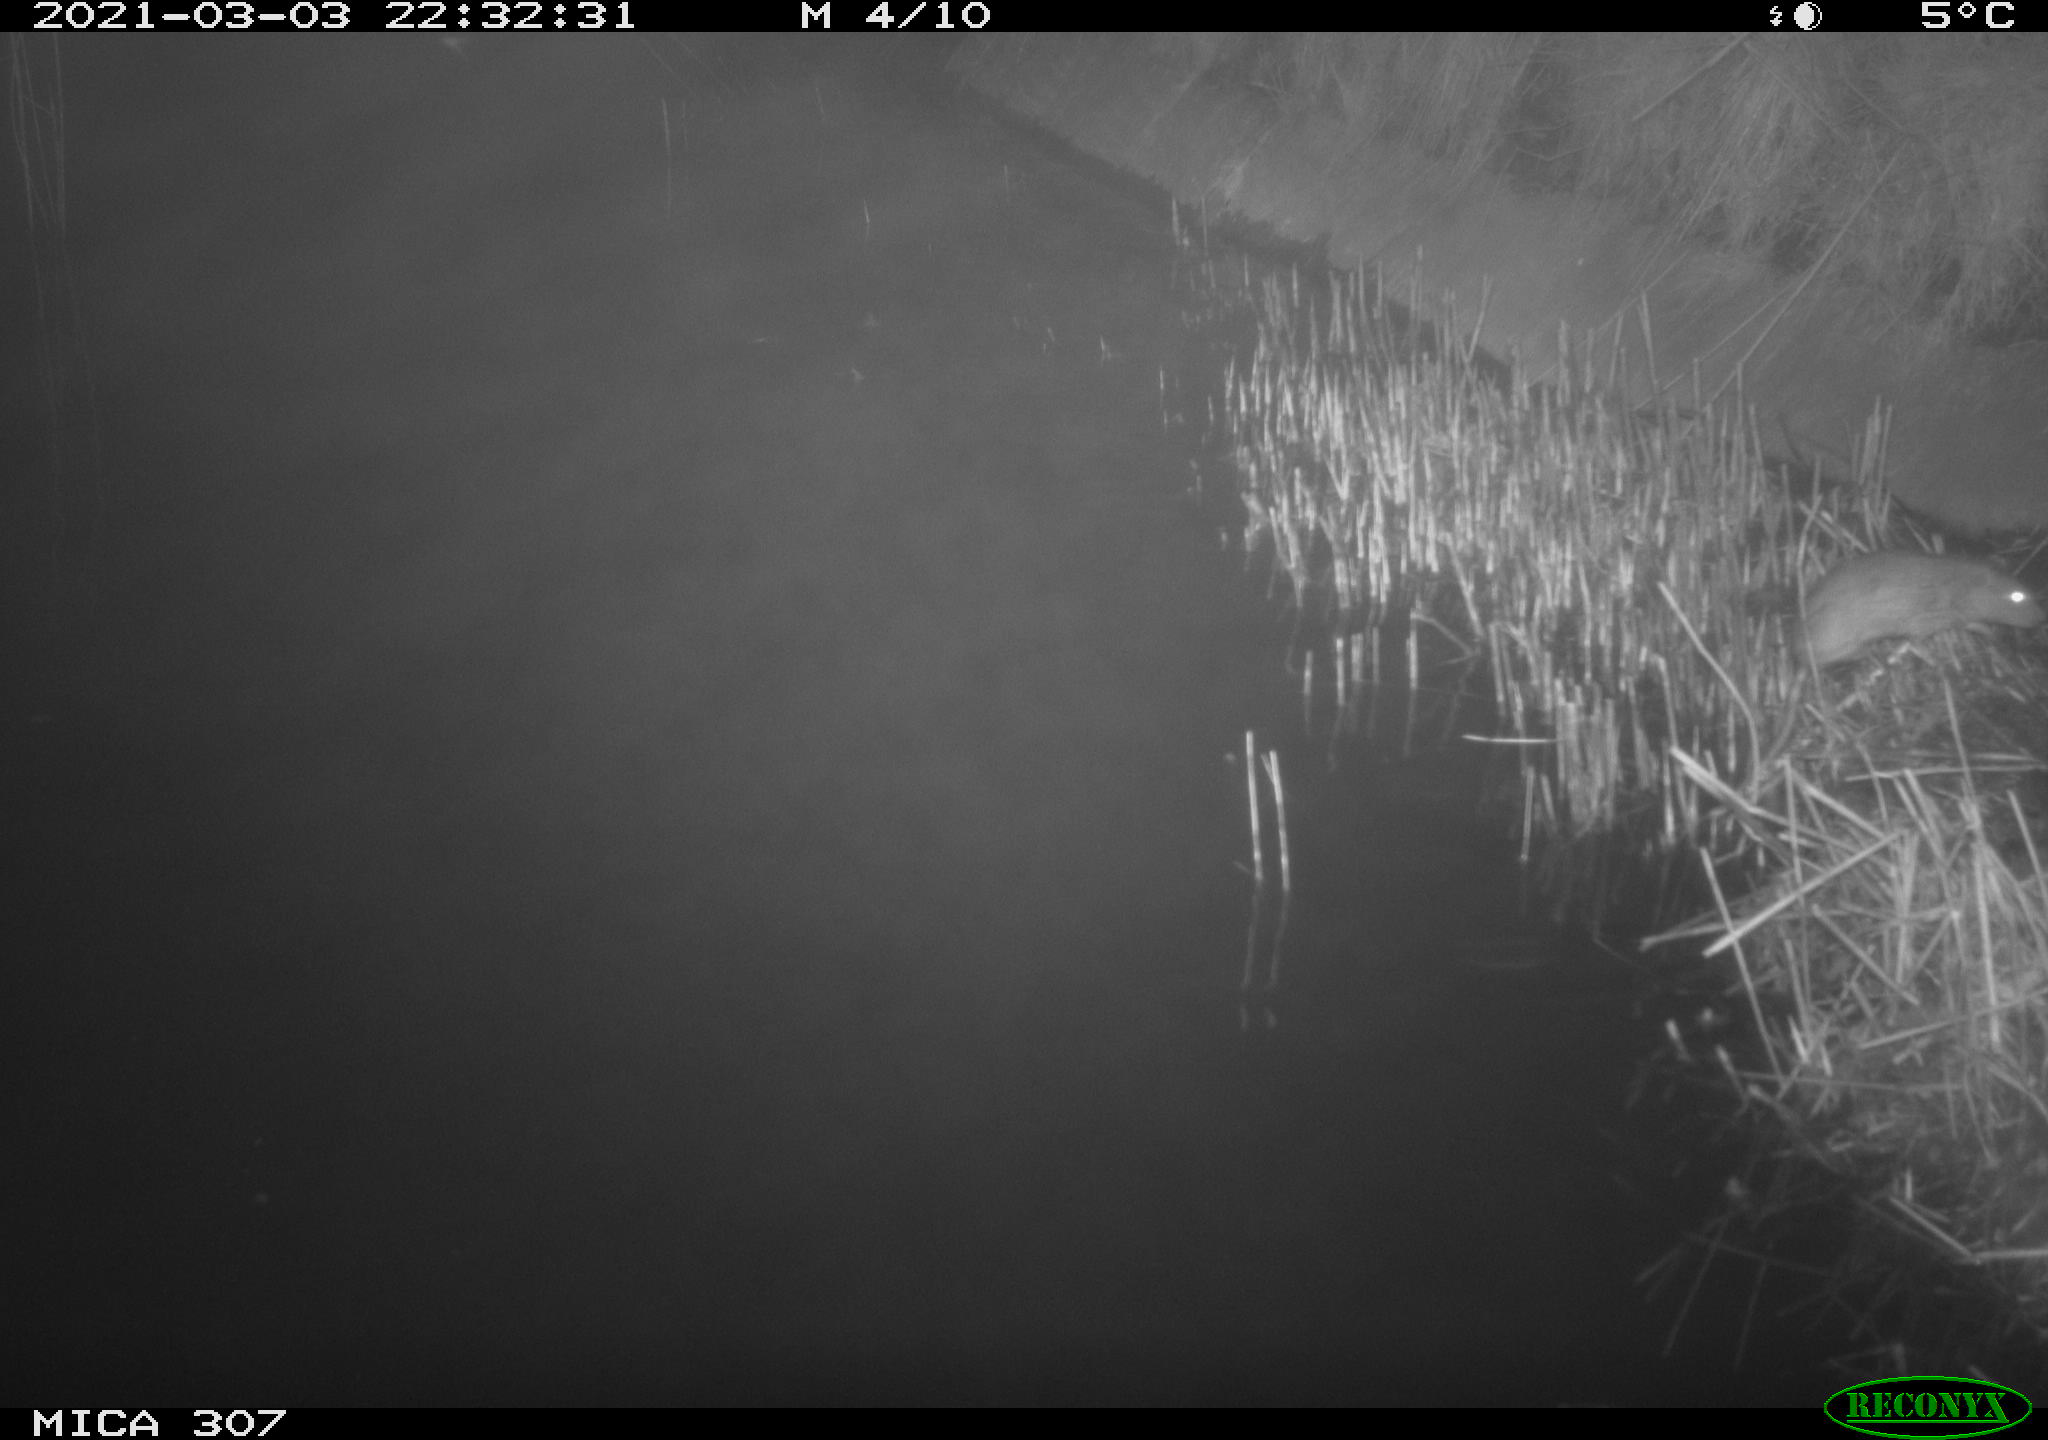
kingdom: Animalia
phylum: Chordata
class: Mammalia
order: Rodentia
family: Muridae
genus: Rattus
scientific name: Rattus norvegicus
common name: Brown rat
